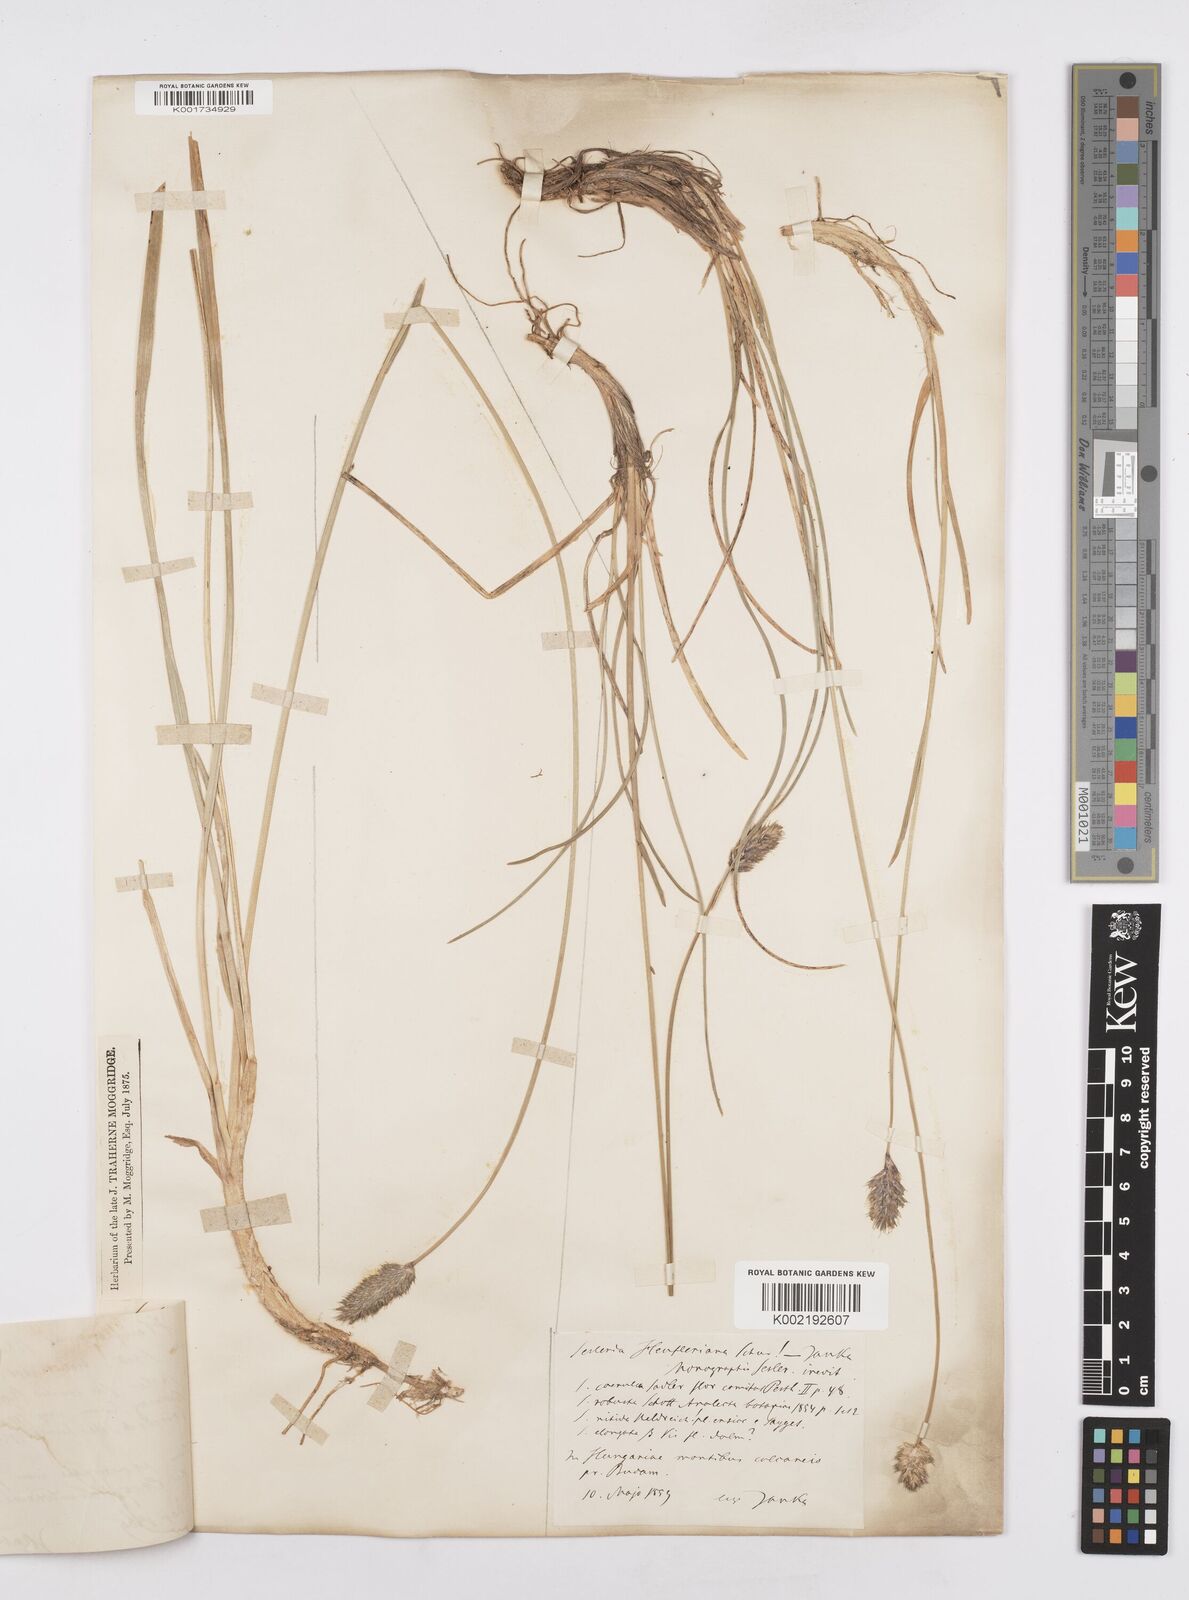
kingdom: Plantae
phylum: Tracheophyta
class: Liliopsida
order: Poales
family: Poaceae
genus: Sesleria
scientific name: Sesleria heufleriana
